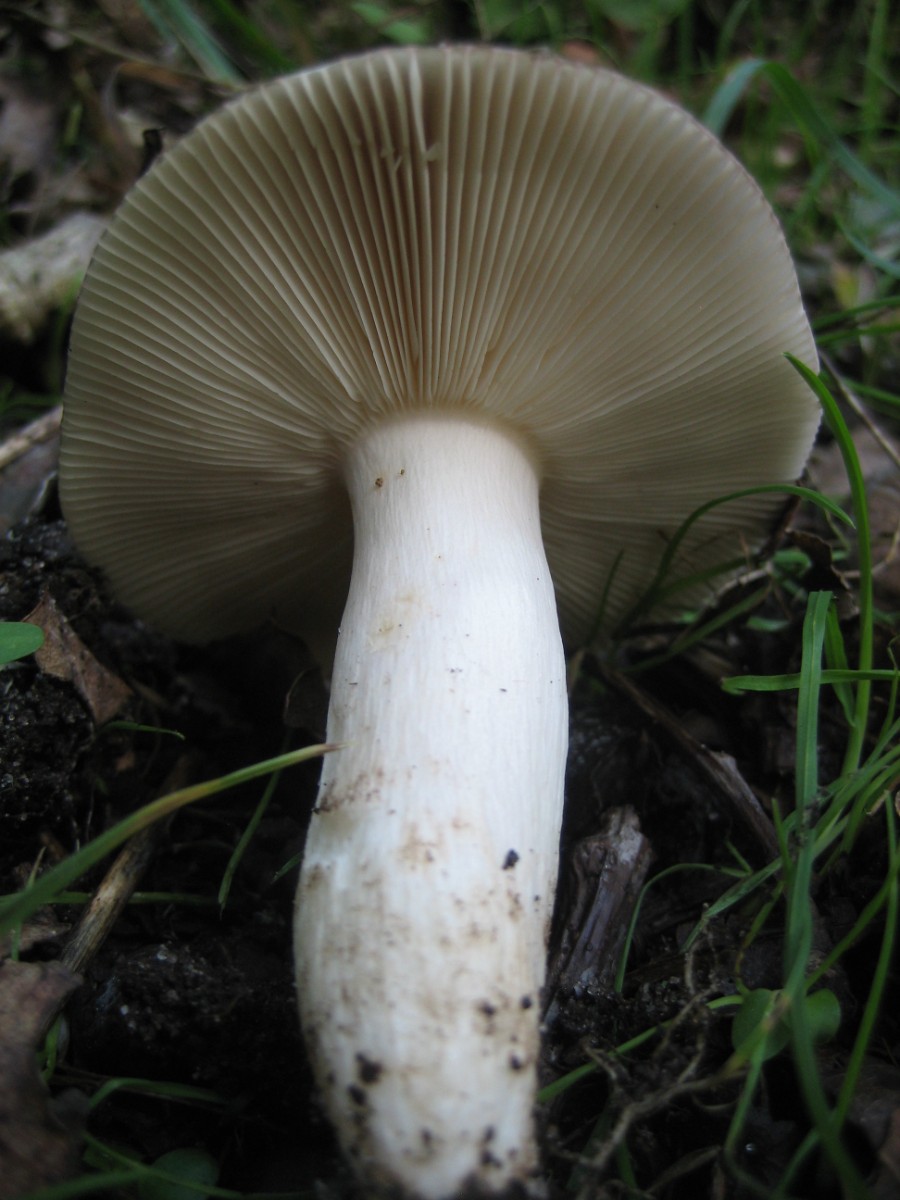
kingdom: Fungi
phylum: Basidiomycota
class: Agaricomycetes
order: Russulales
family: Russulaceae
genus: Russula
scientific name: Russula
